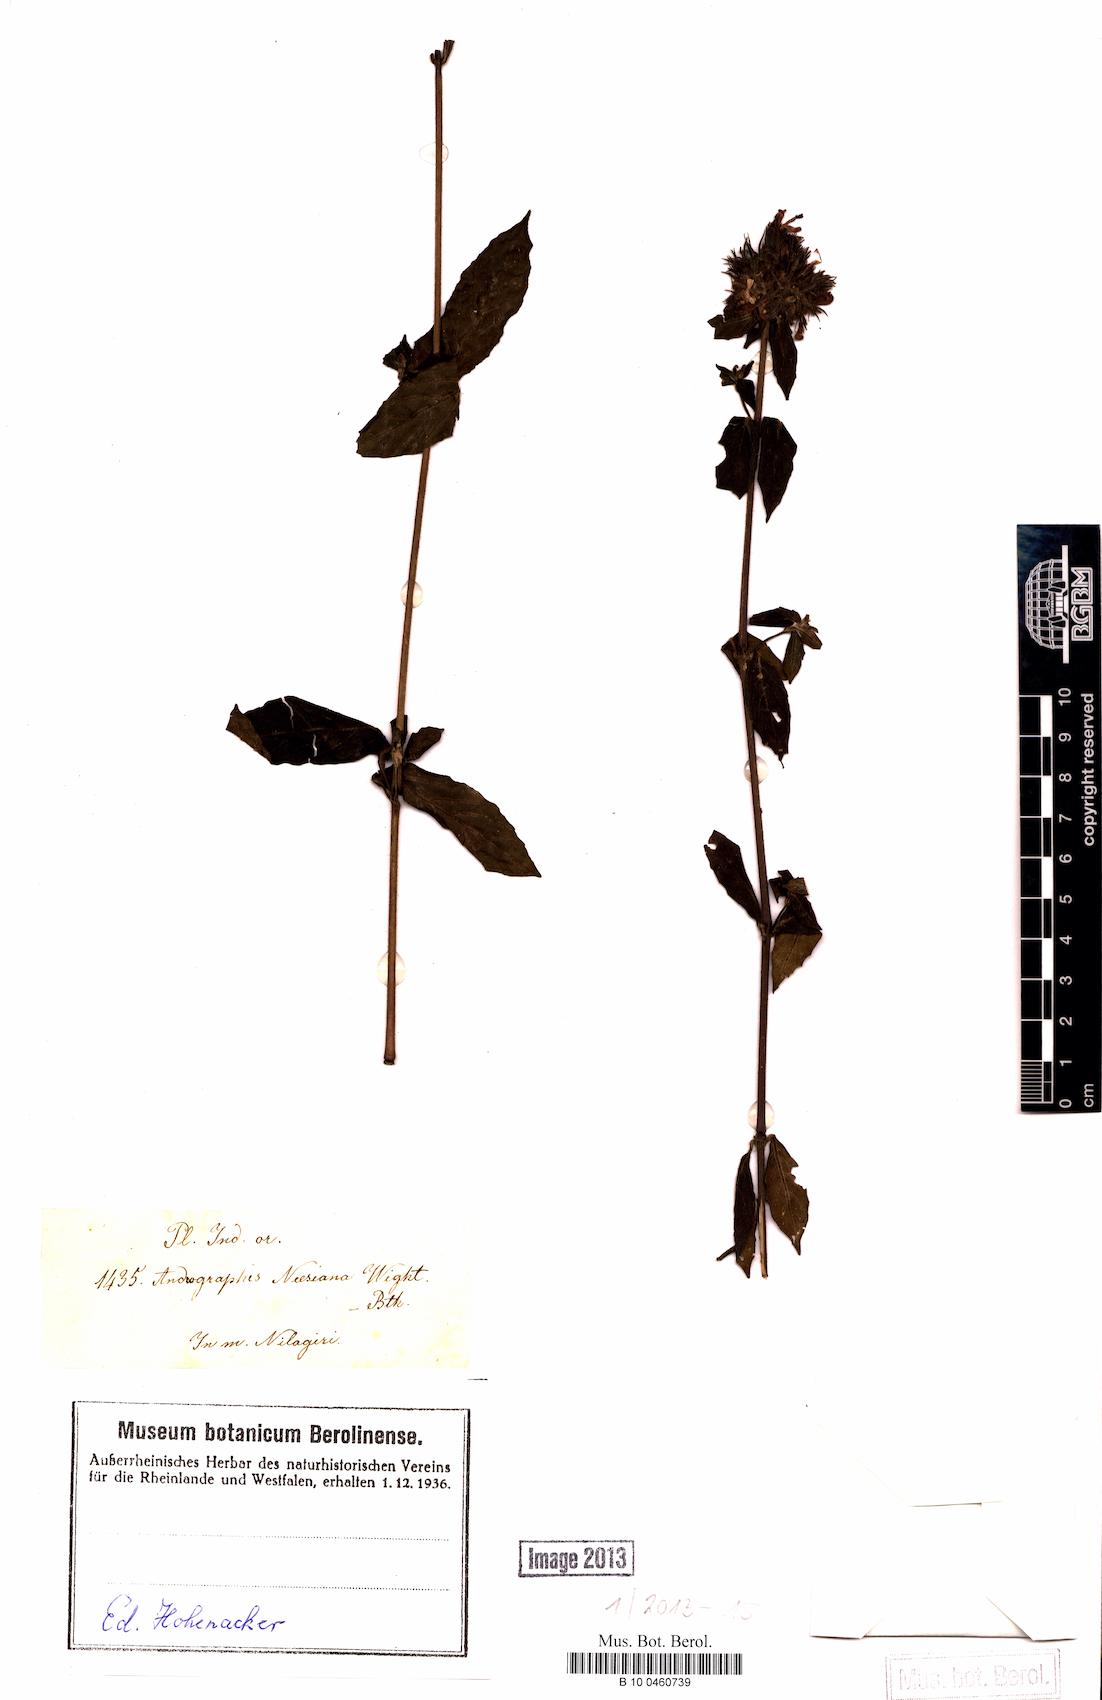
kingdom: Plantae
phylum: Tracheophyta
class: Magnoliopsida
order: Lamiales
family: Acanthaceae
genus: Andrographis
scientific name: Andrographis stellulata
